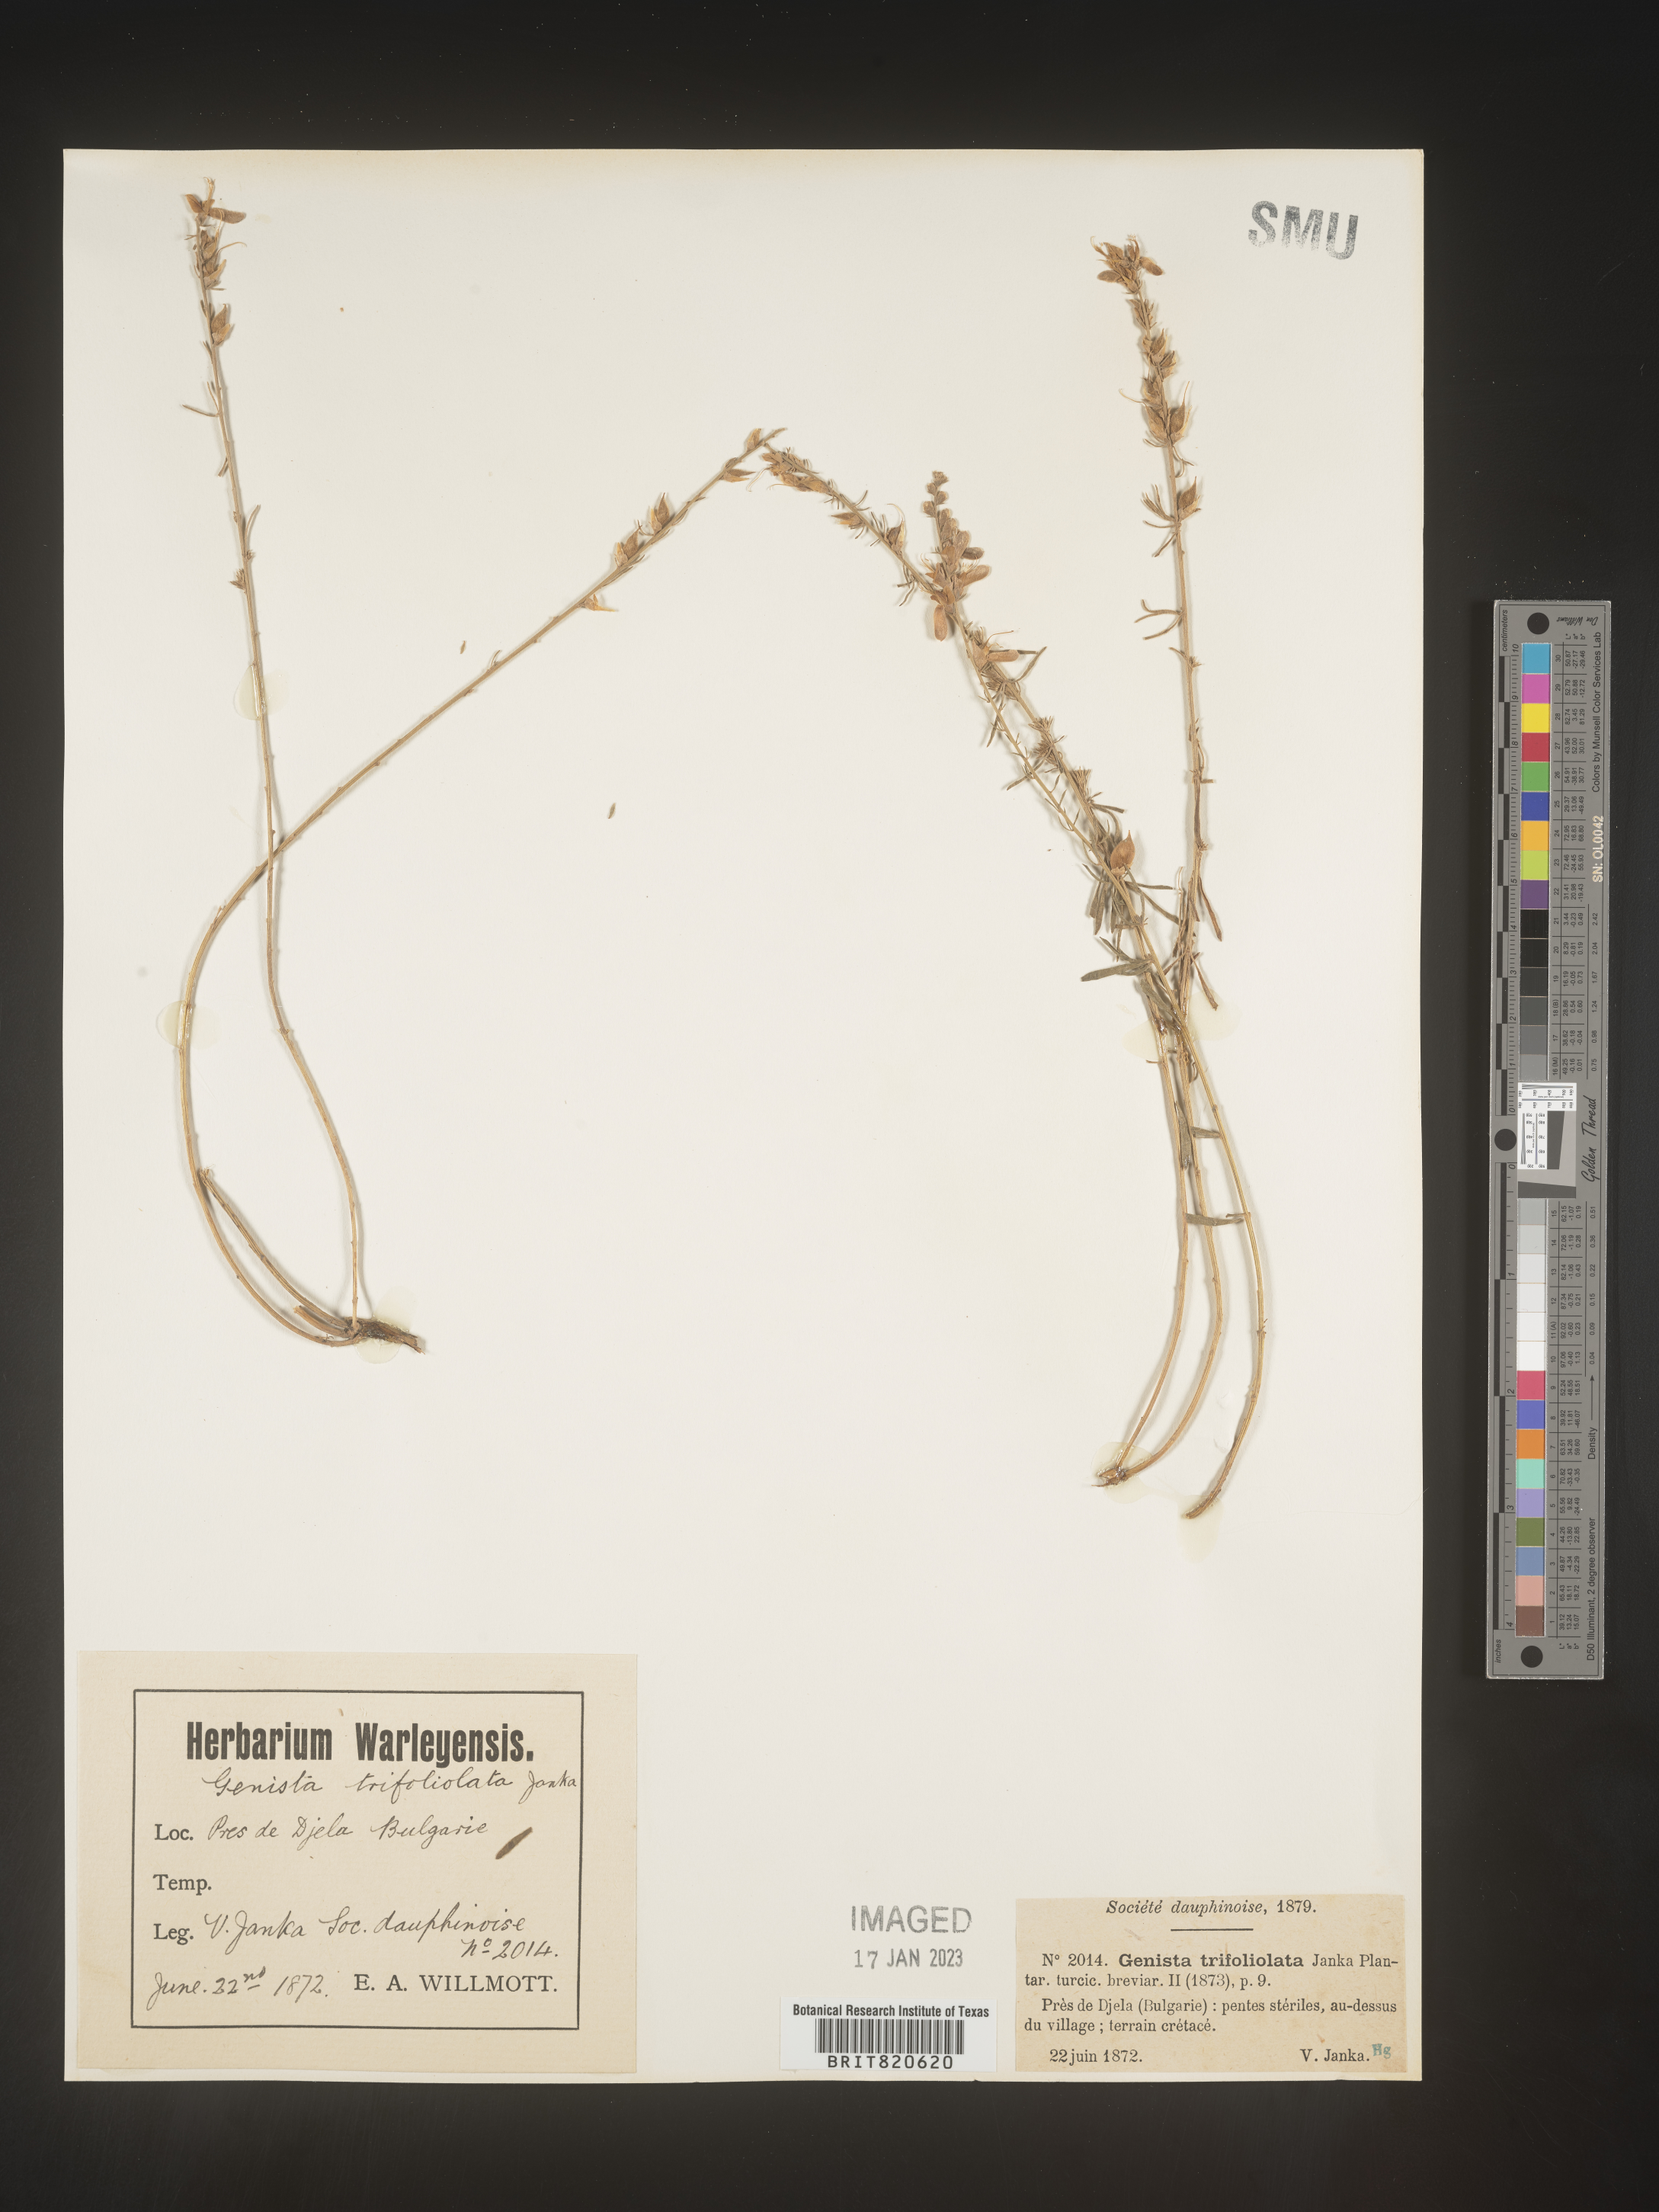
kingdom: Plantae
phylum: Tracheophyta
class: Magnoliopsida
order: Fabales
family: Fabaceae
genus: Genista
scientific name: Genista
